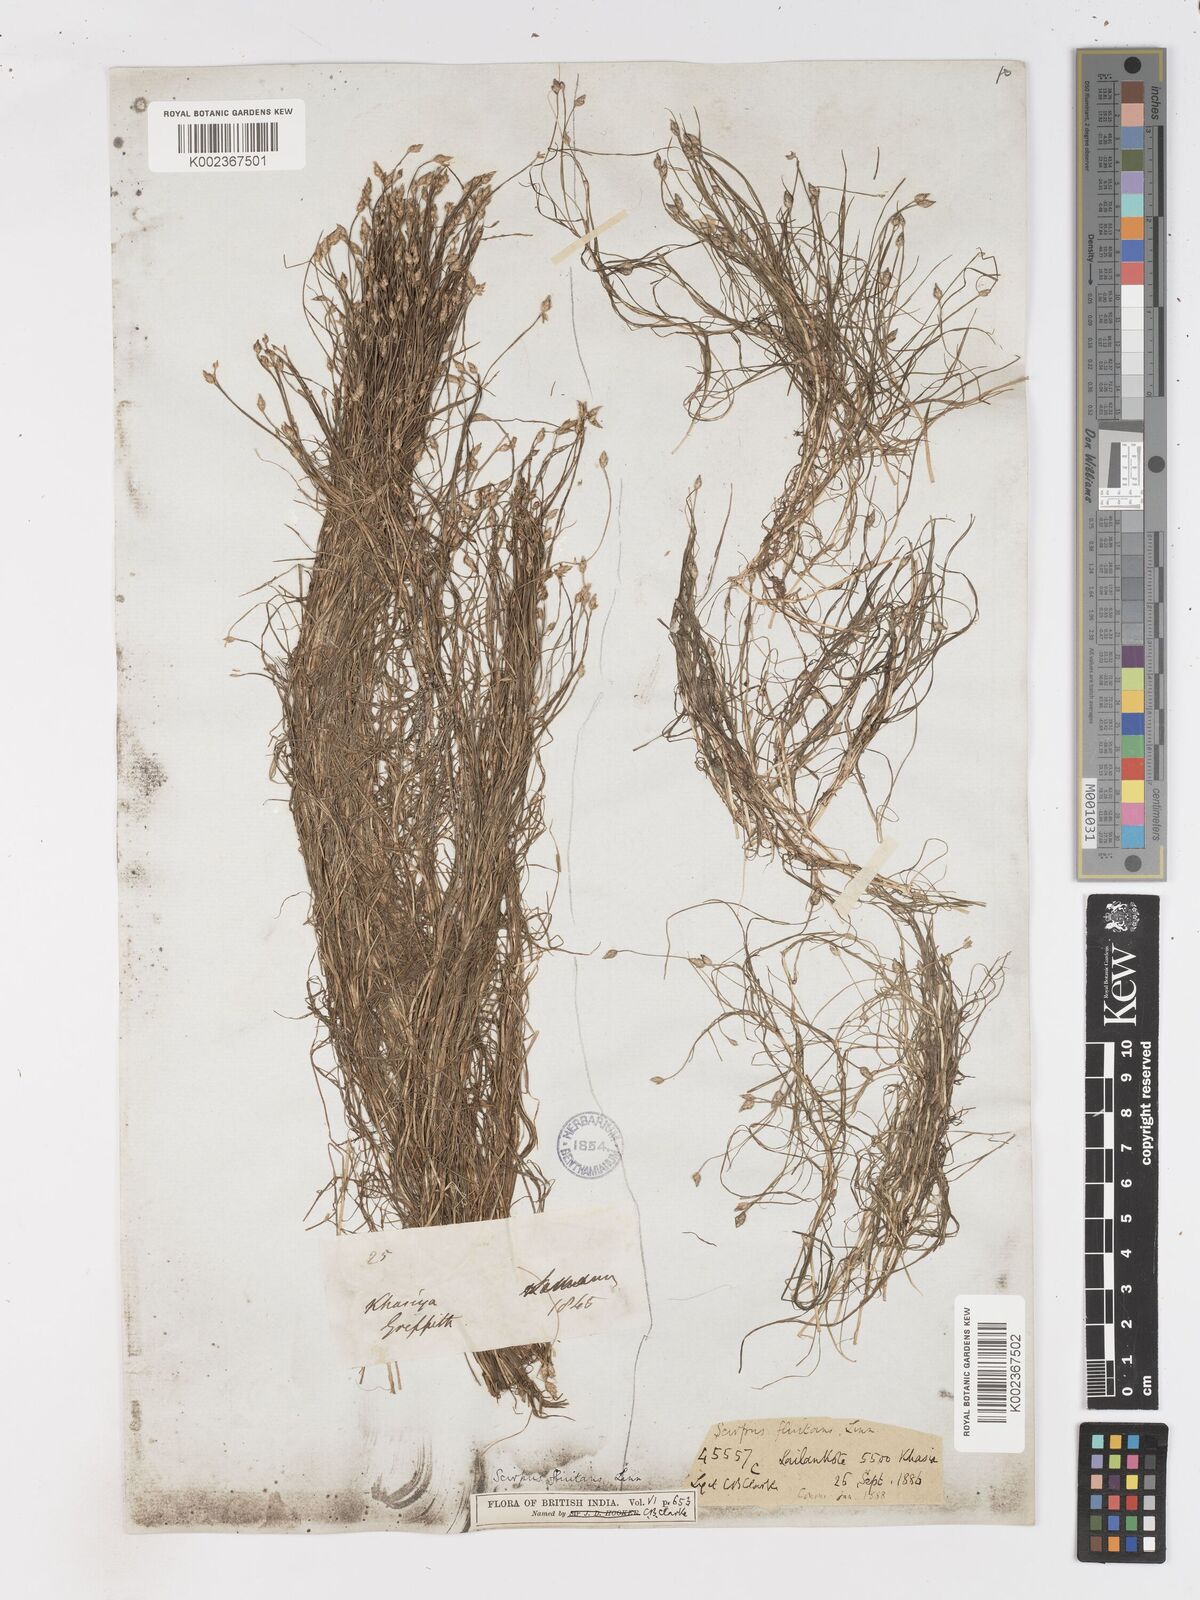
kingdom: Plantae
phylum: Tracheophyta
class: Liliopsida
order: Poales
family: Cyperaceae
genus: Isolepis
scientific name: Isolepis fluitans
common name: Floating club-rush
